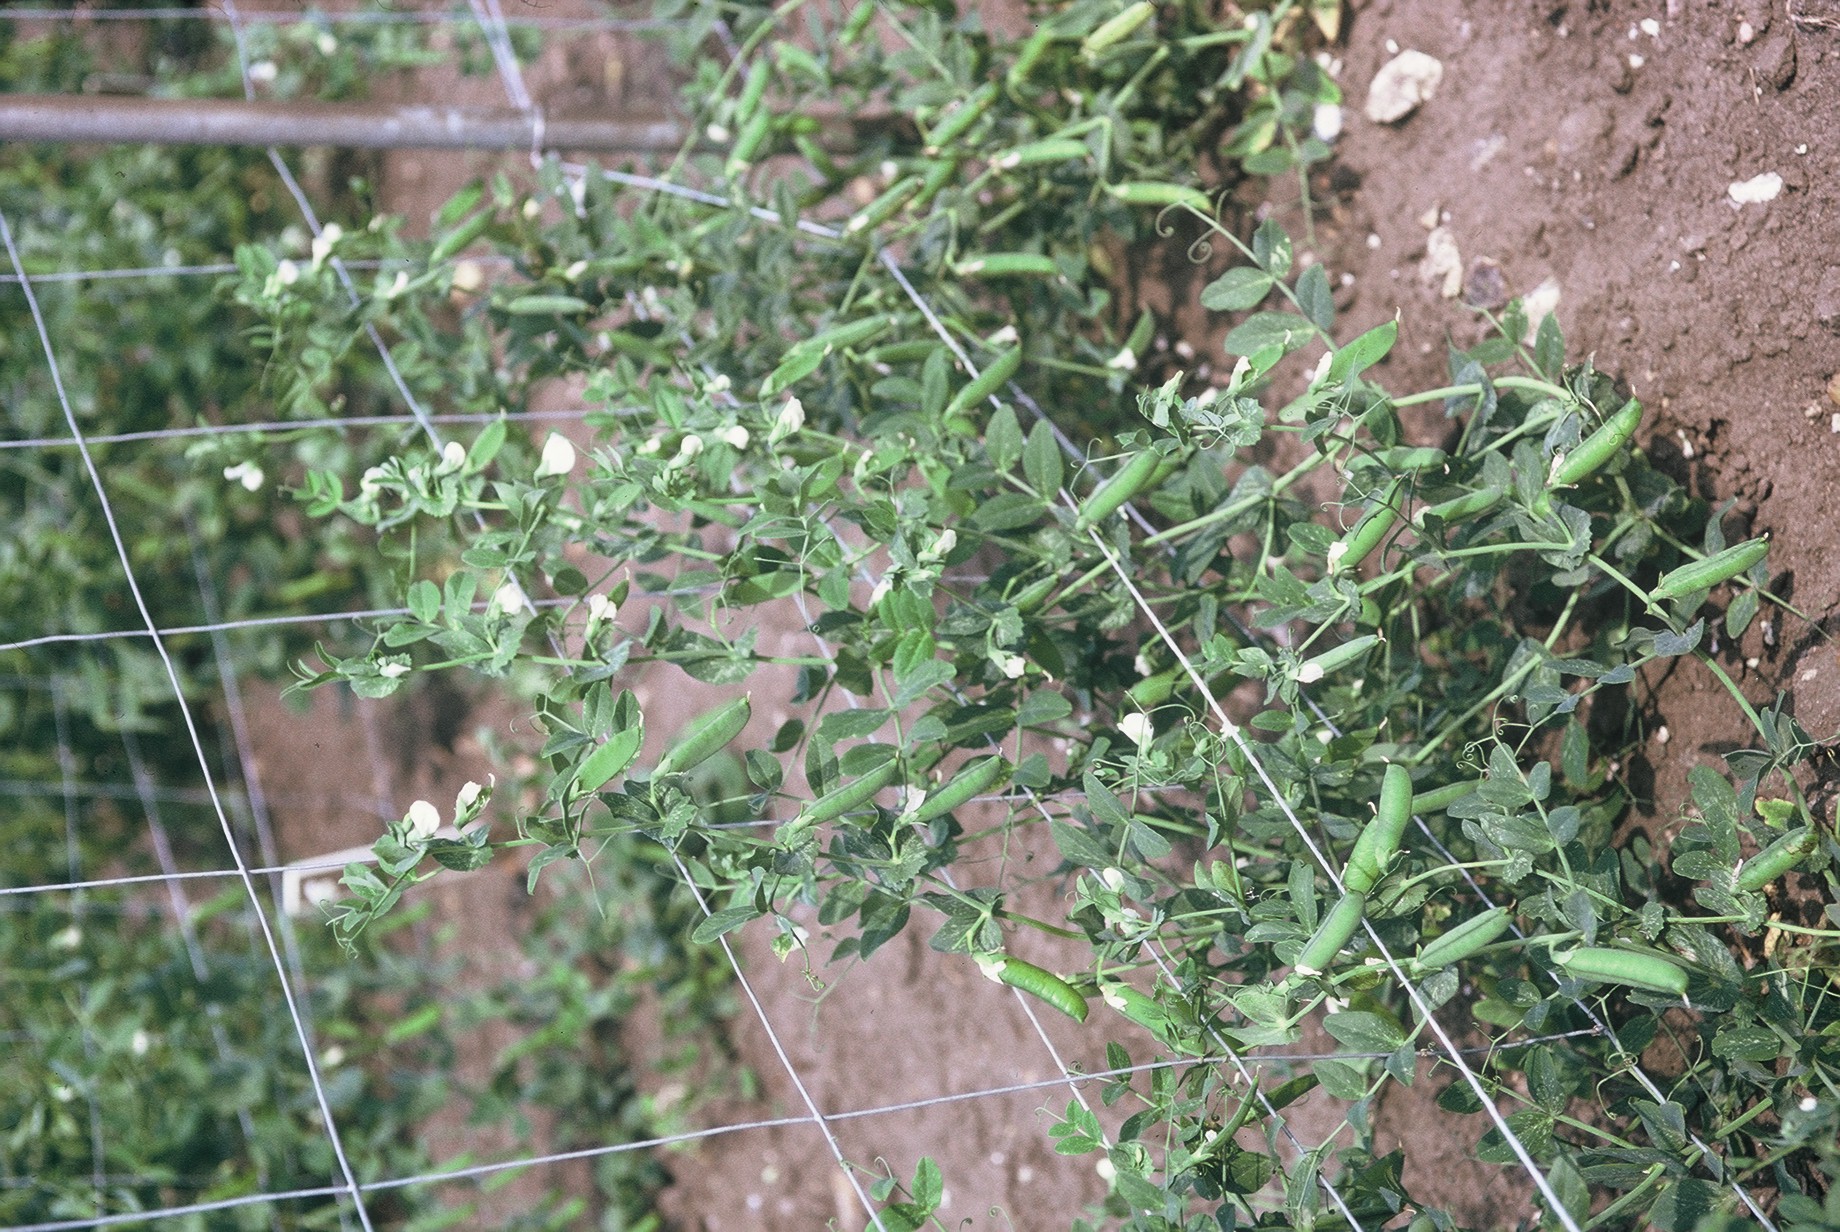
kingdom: Plantae
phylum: Tracheophyta
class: Magnoliopsida
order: Fabales
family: Fabaceae
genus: Lathyrus
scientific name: Lathyrus oleraceus
